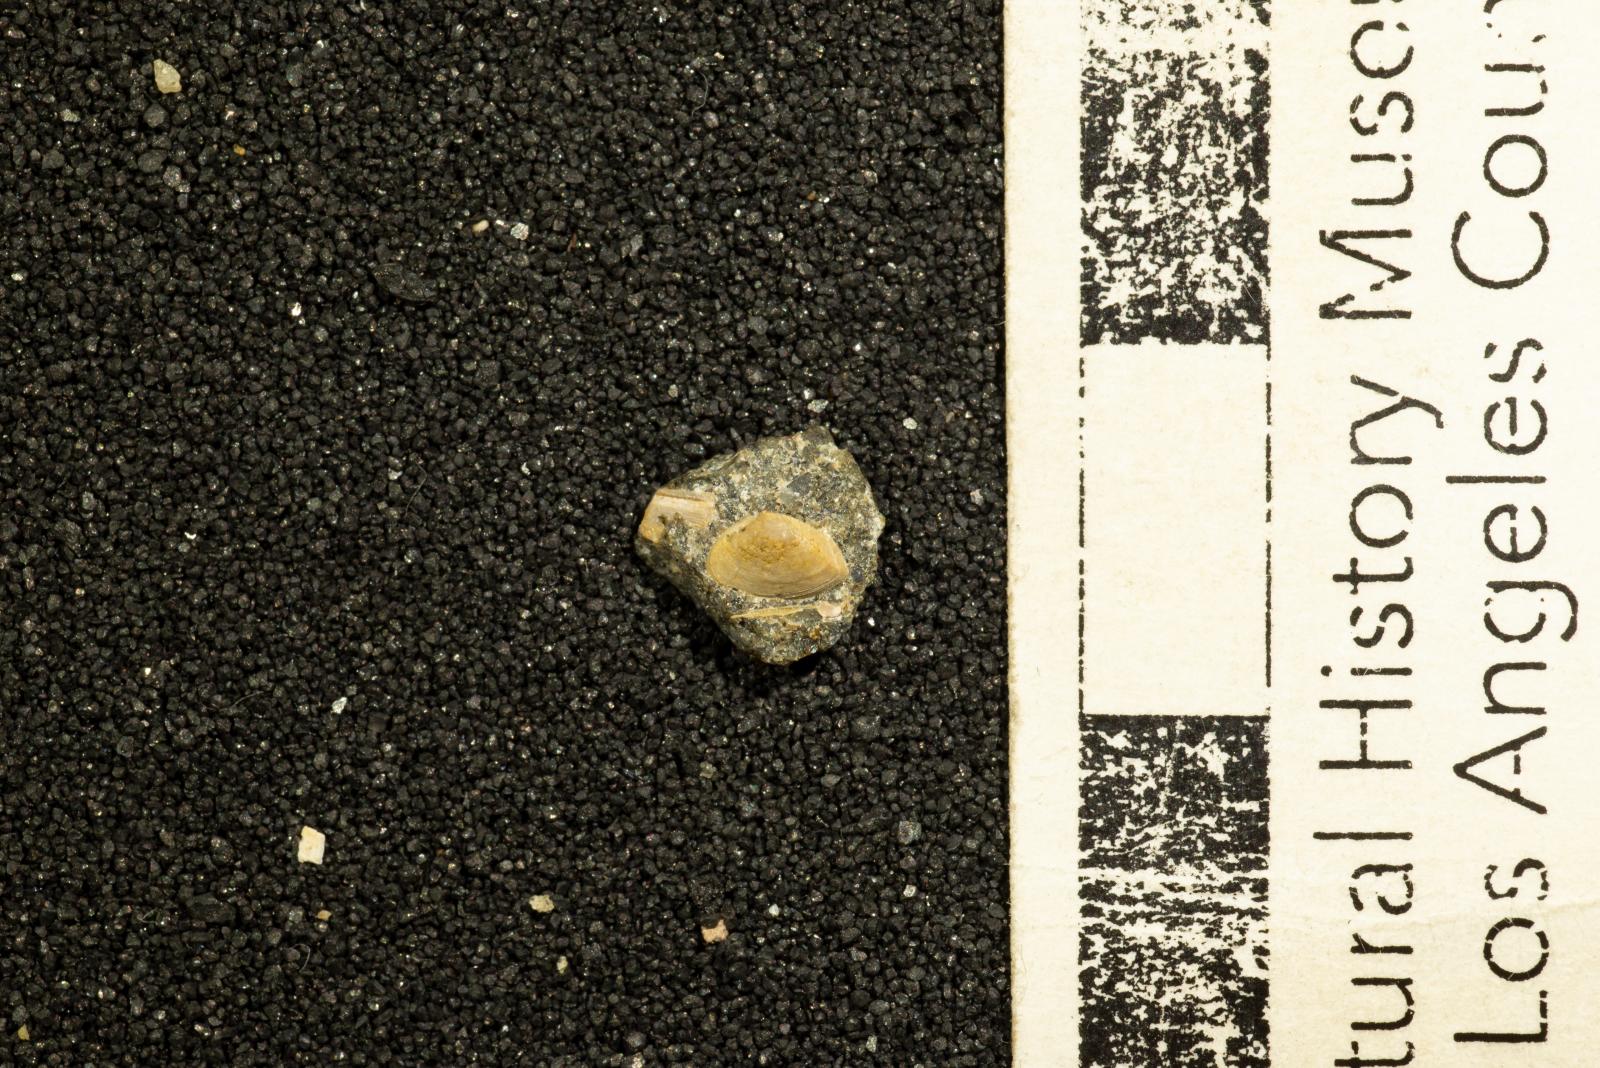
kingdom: Animalia
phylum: Mollusca
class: Bivalvia
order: Myida
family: Corbulidae
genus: Caryocorbula
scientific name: Caryocorbula traskii
